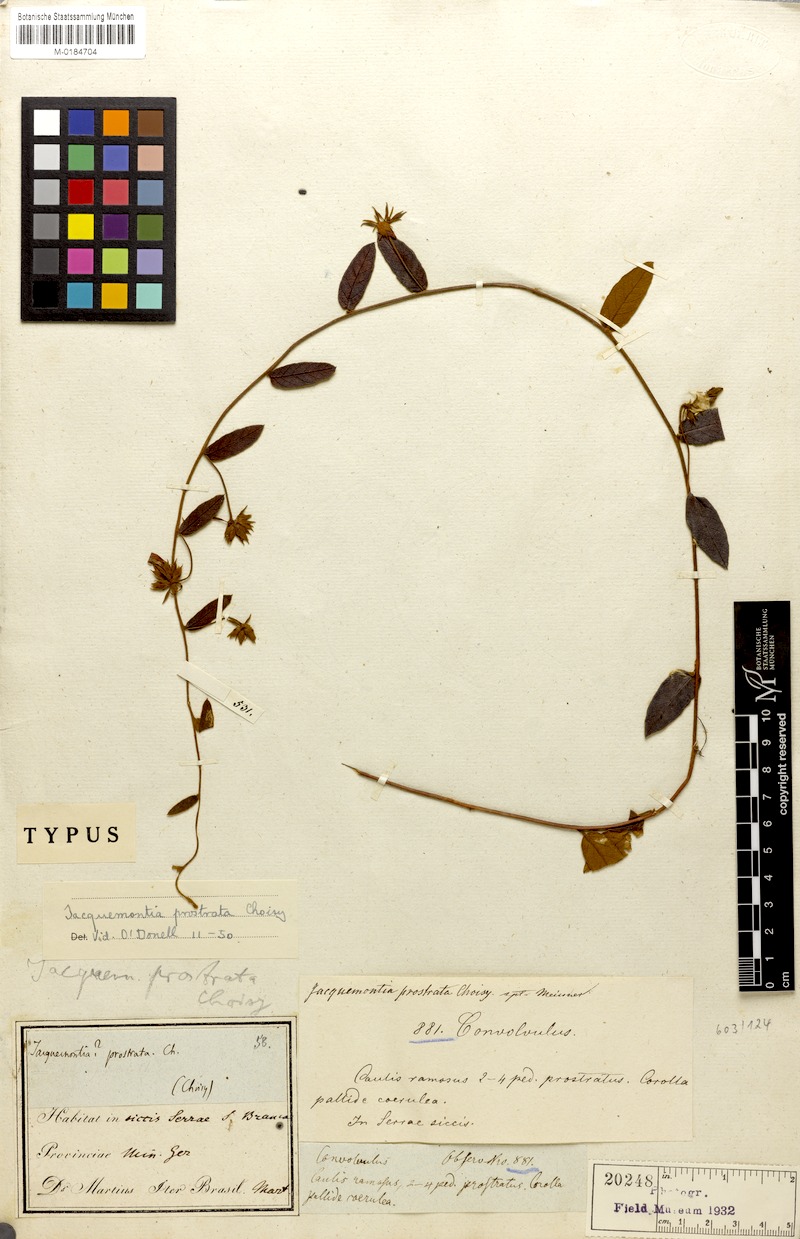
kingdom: Plantae
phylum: Tracheophyta
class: Magnoliopsida
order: Solanales
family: Convolvulaceae
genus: Jacquemontia
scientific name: Jacquemontia prostrata
